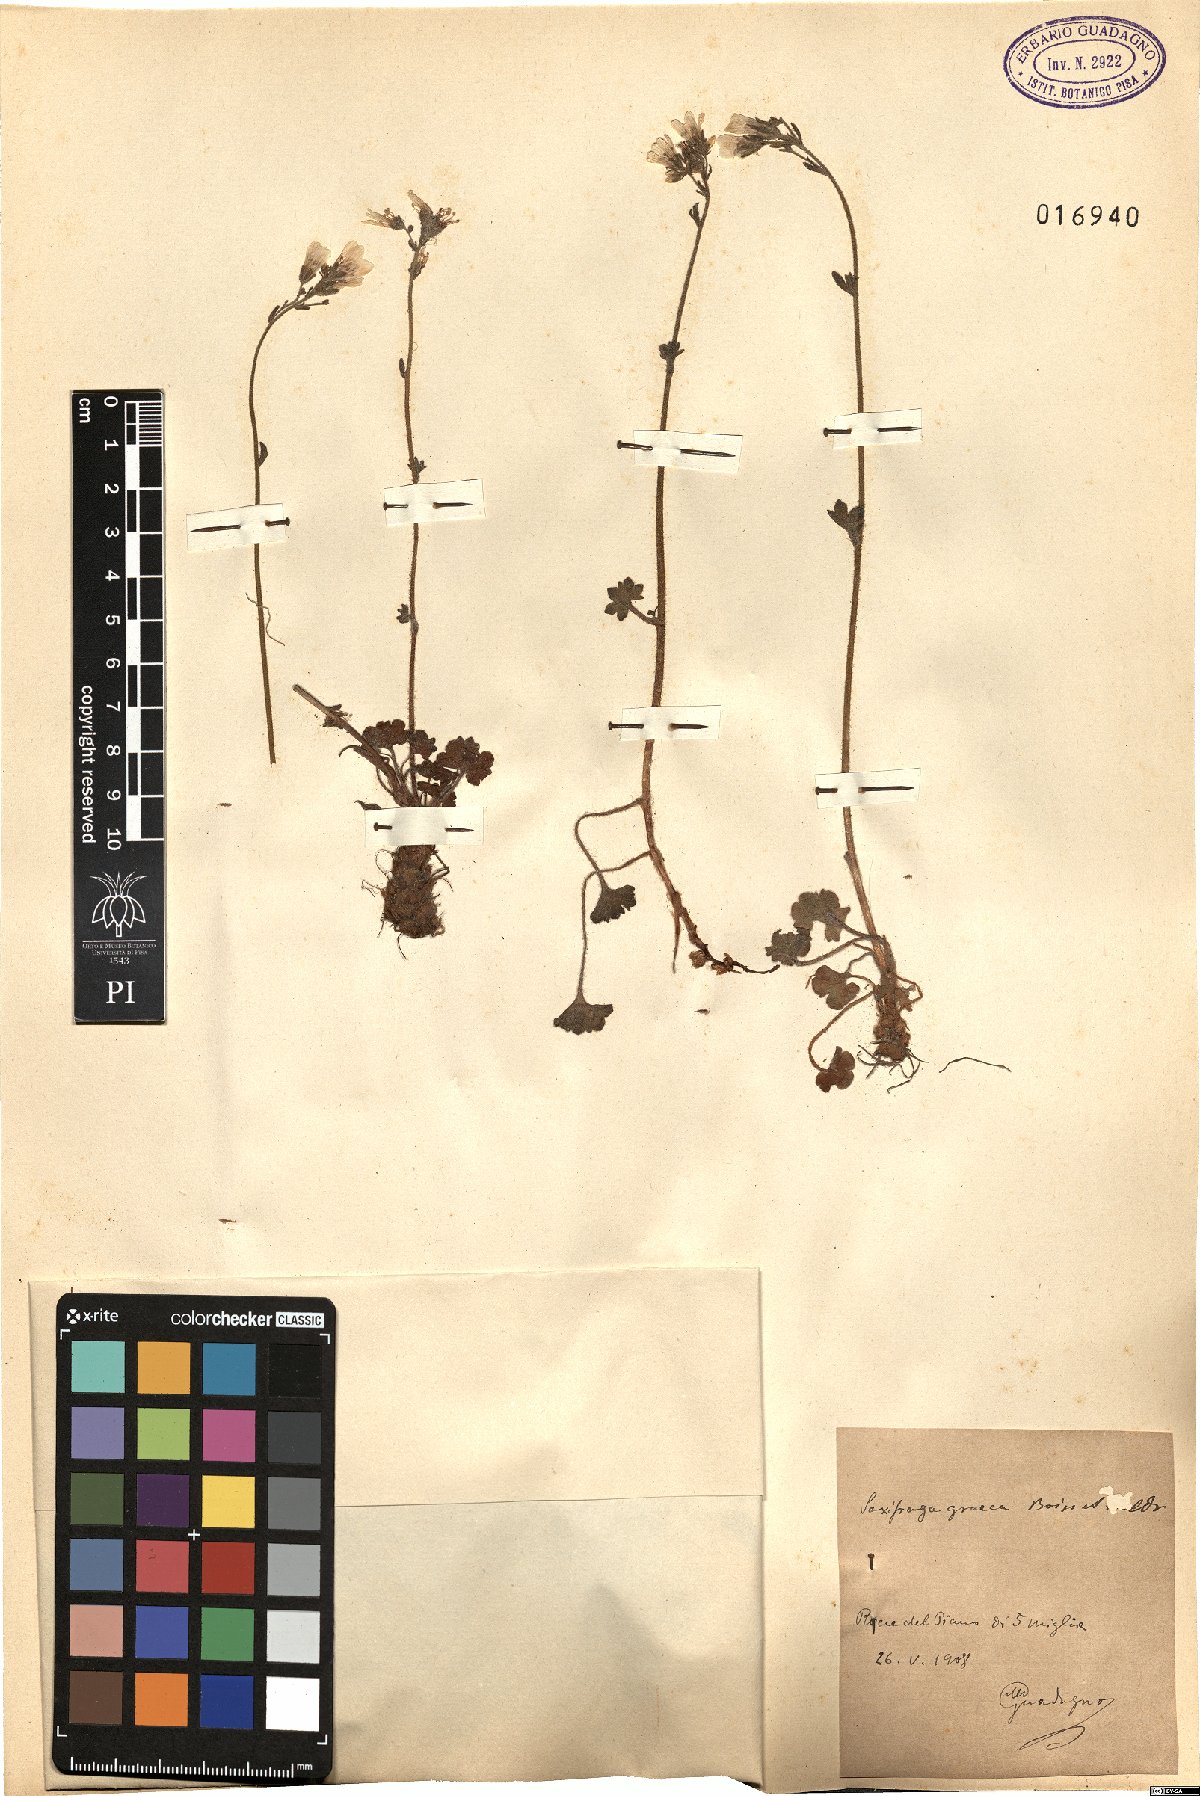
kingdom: Plantae
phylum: Tracheophyta
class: Magnoliopsida
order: Saxifragales
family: Saxifragaceae
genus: Saxifraga
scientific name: Saxifraga carpetana
